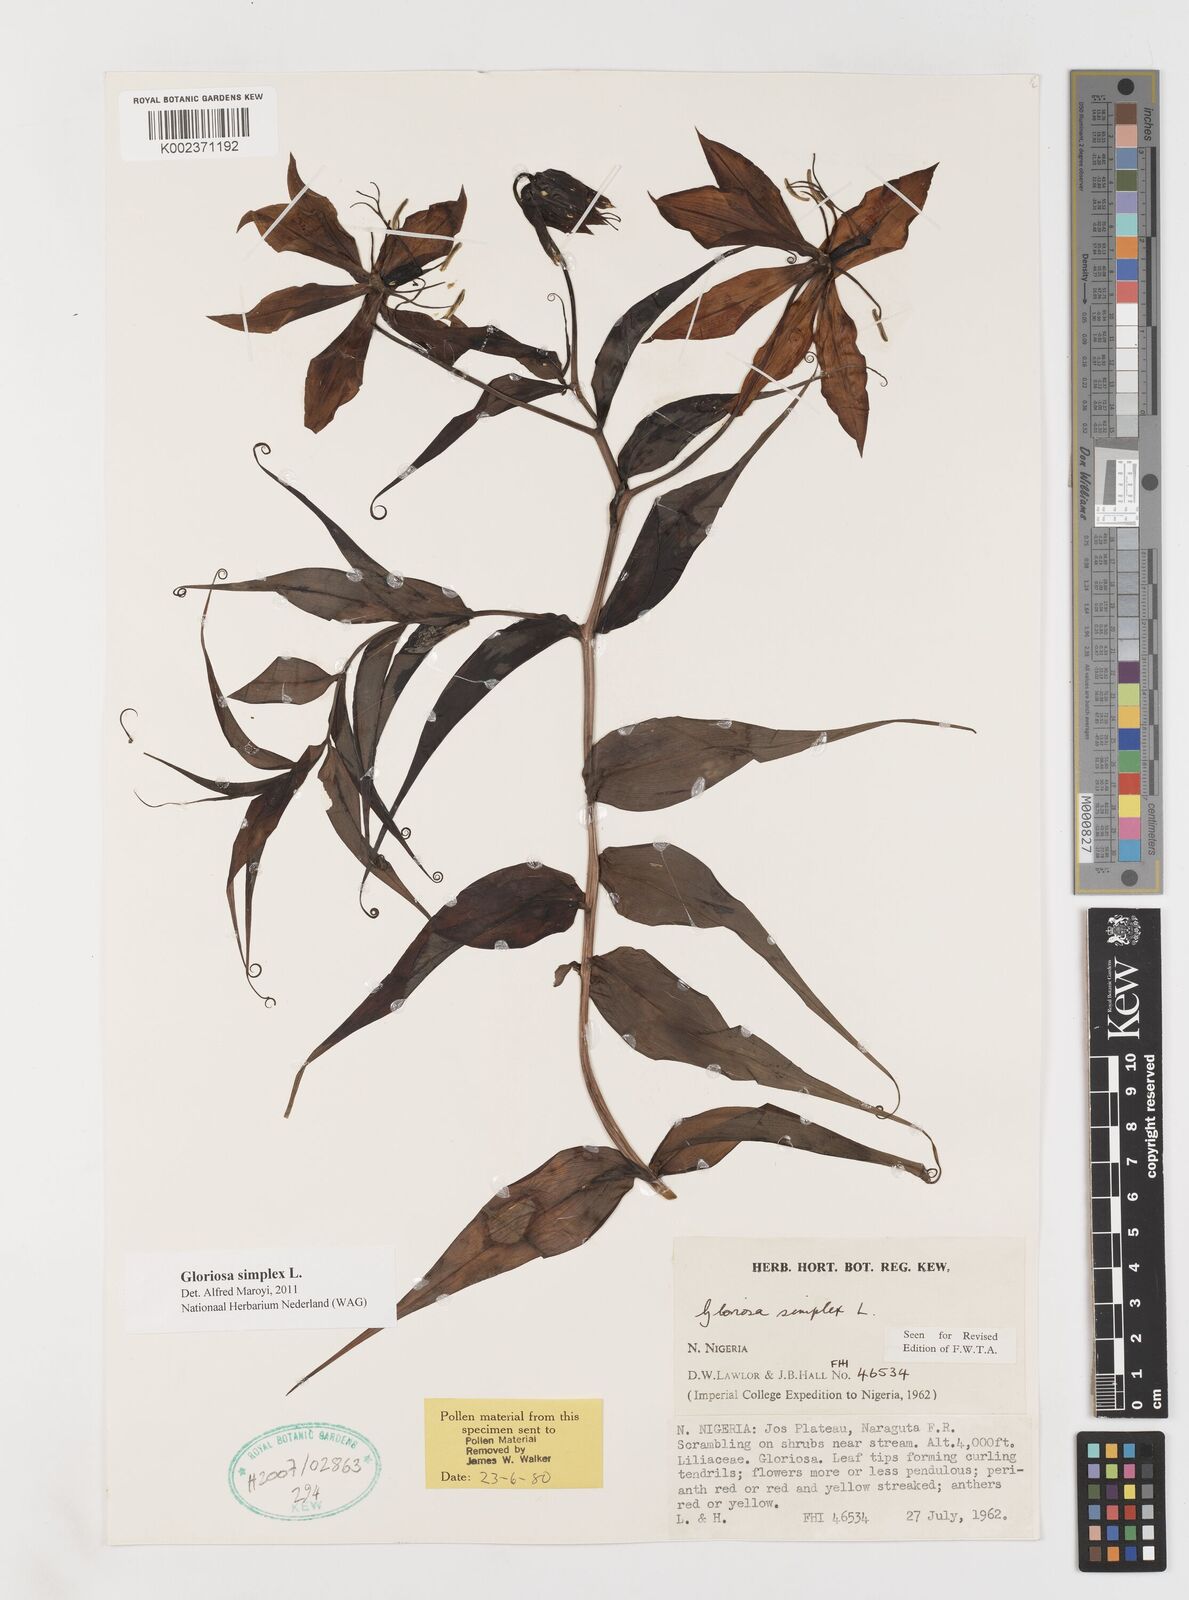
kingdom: Plantae
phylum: Tracheophyta
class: Liliopsida
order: Liliales
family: Colchicaceae
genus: Gloriosa
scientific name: Gloriosa simplex
